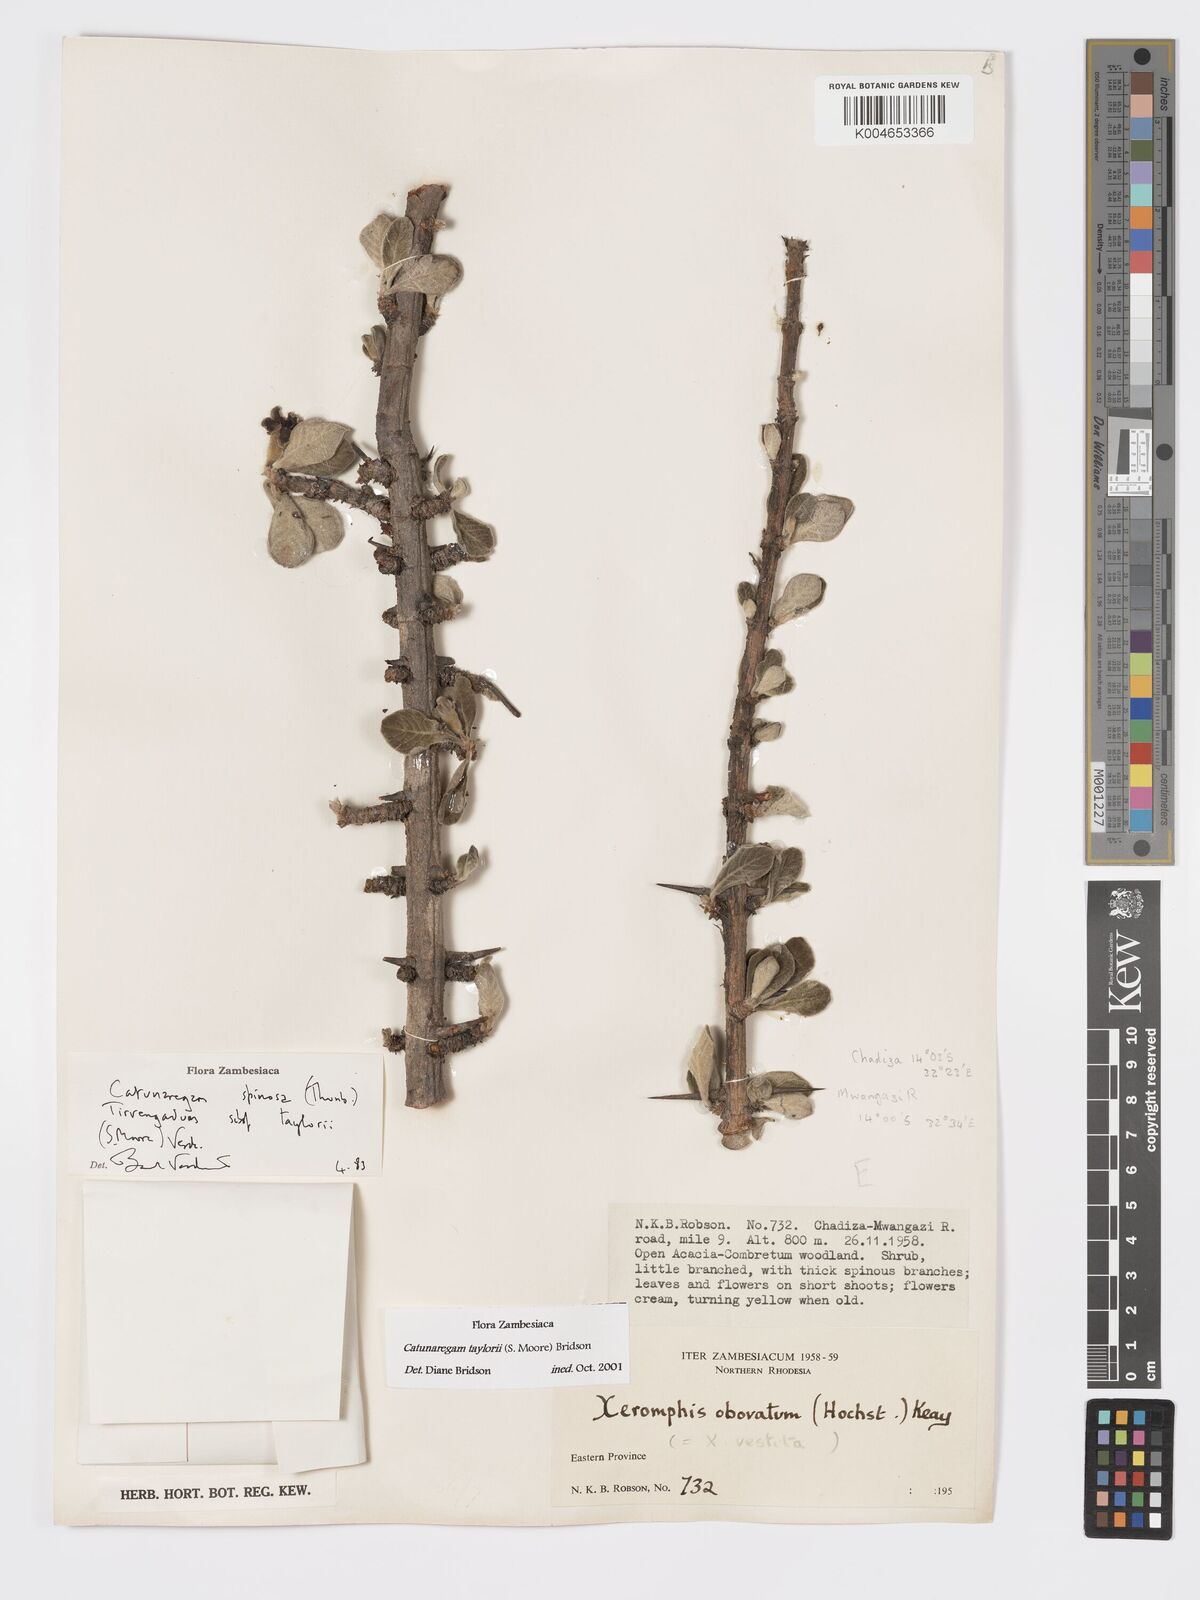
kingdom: Plantae
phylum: Tracheophyta
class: Magnoliopsida
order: Gentianales
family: Rubiaceae
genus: Catunaregam
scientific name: Catunaregam taylorii
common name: Miombo bone-apple
